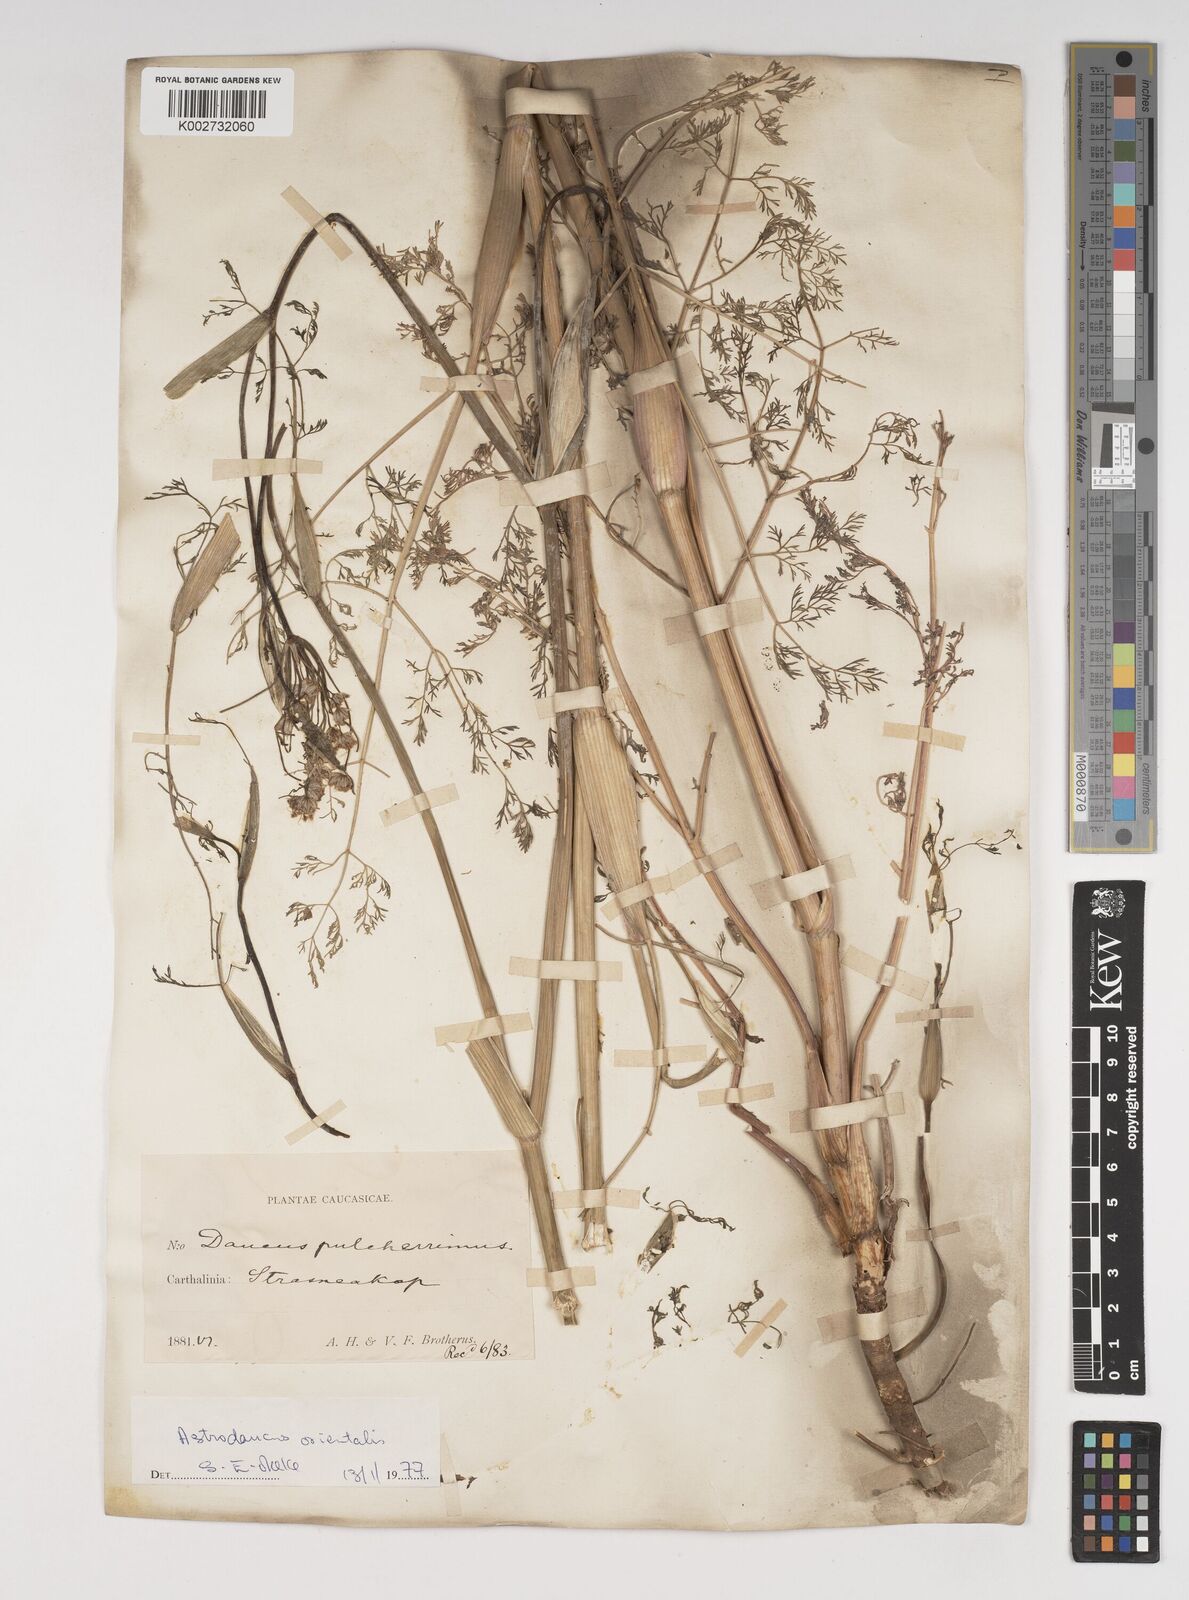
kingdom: Plantae
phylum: Tracheophyta
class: Magnoliopsida
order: Apiales
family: Apiaceae
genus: Astrodaucus
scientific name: Astrodaucus orientalis
